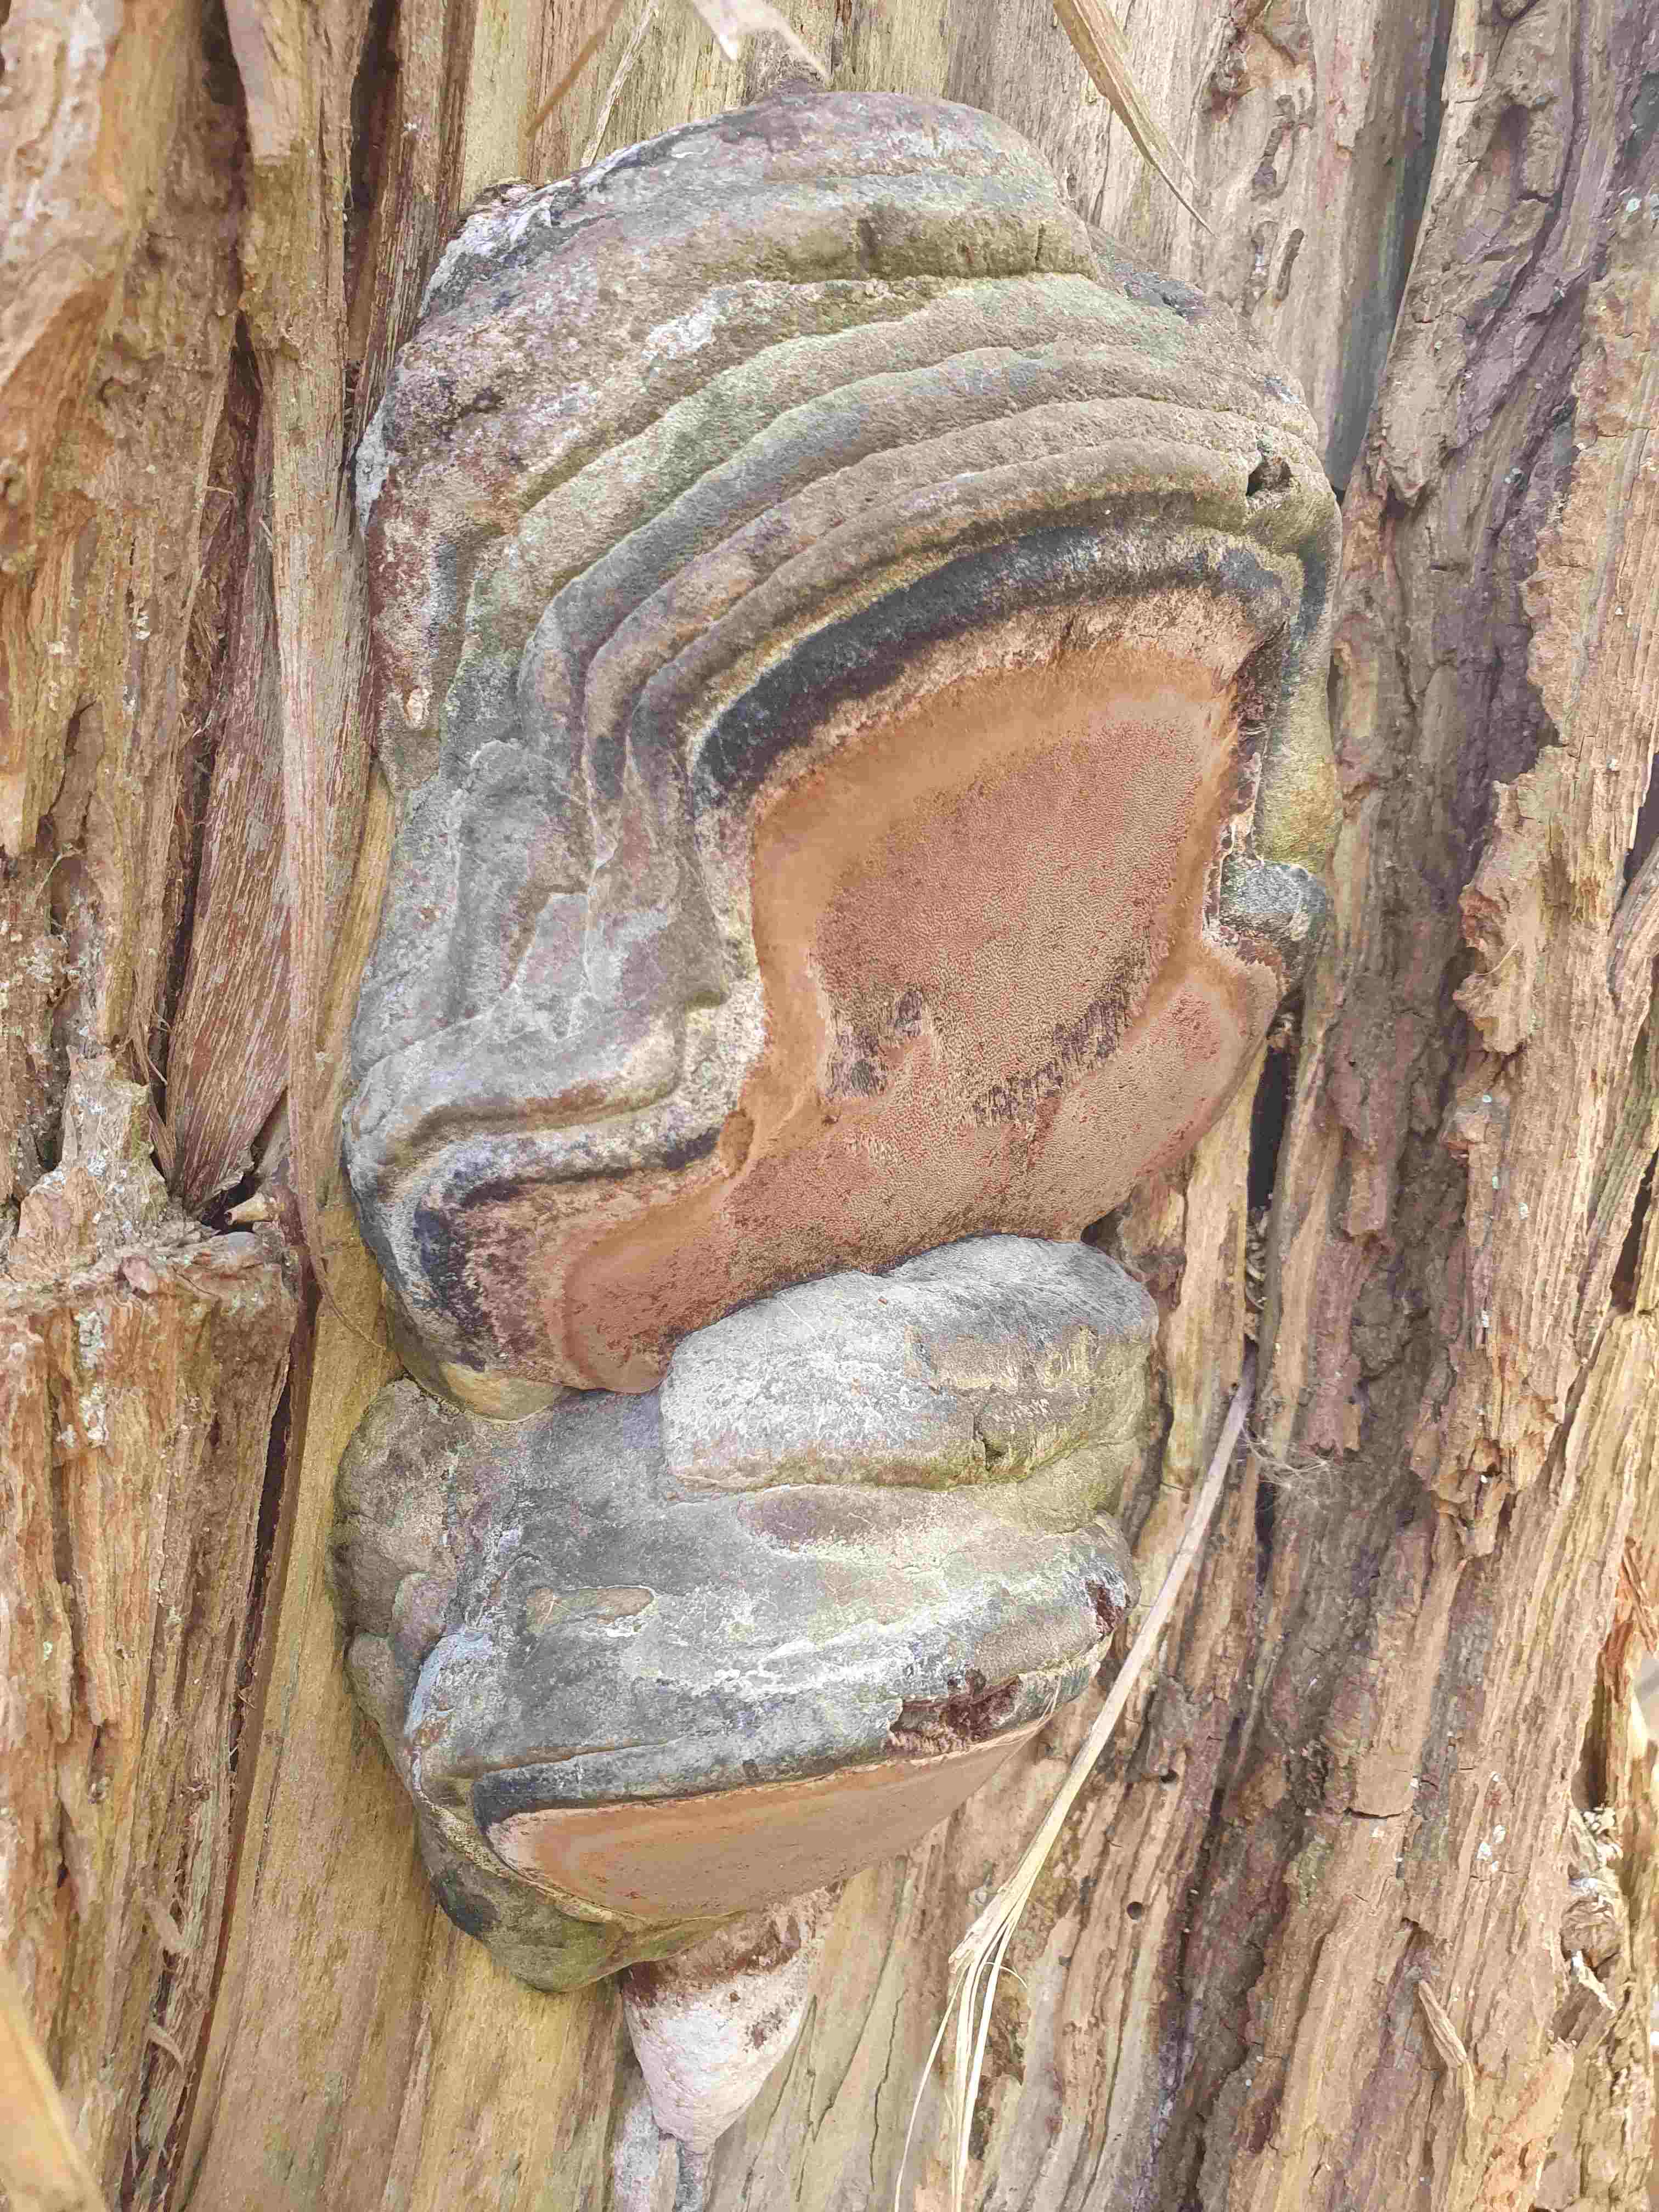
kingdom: Fungi
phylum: Basidiomycota
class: Agaricomycetes
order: Hymenochaetales
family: Hymenochaetaceae
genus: Phellinus
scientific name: Phellinus populicola
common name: poppel-ildporesvamp
